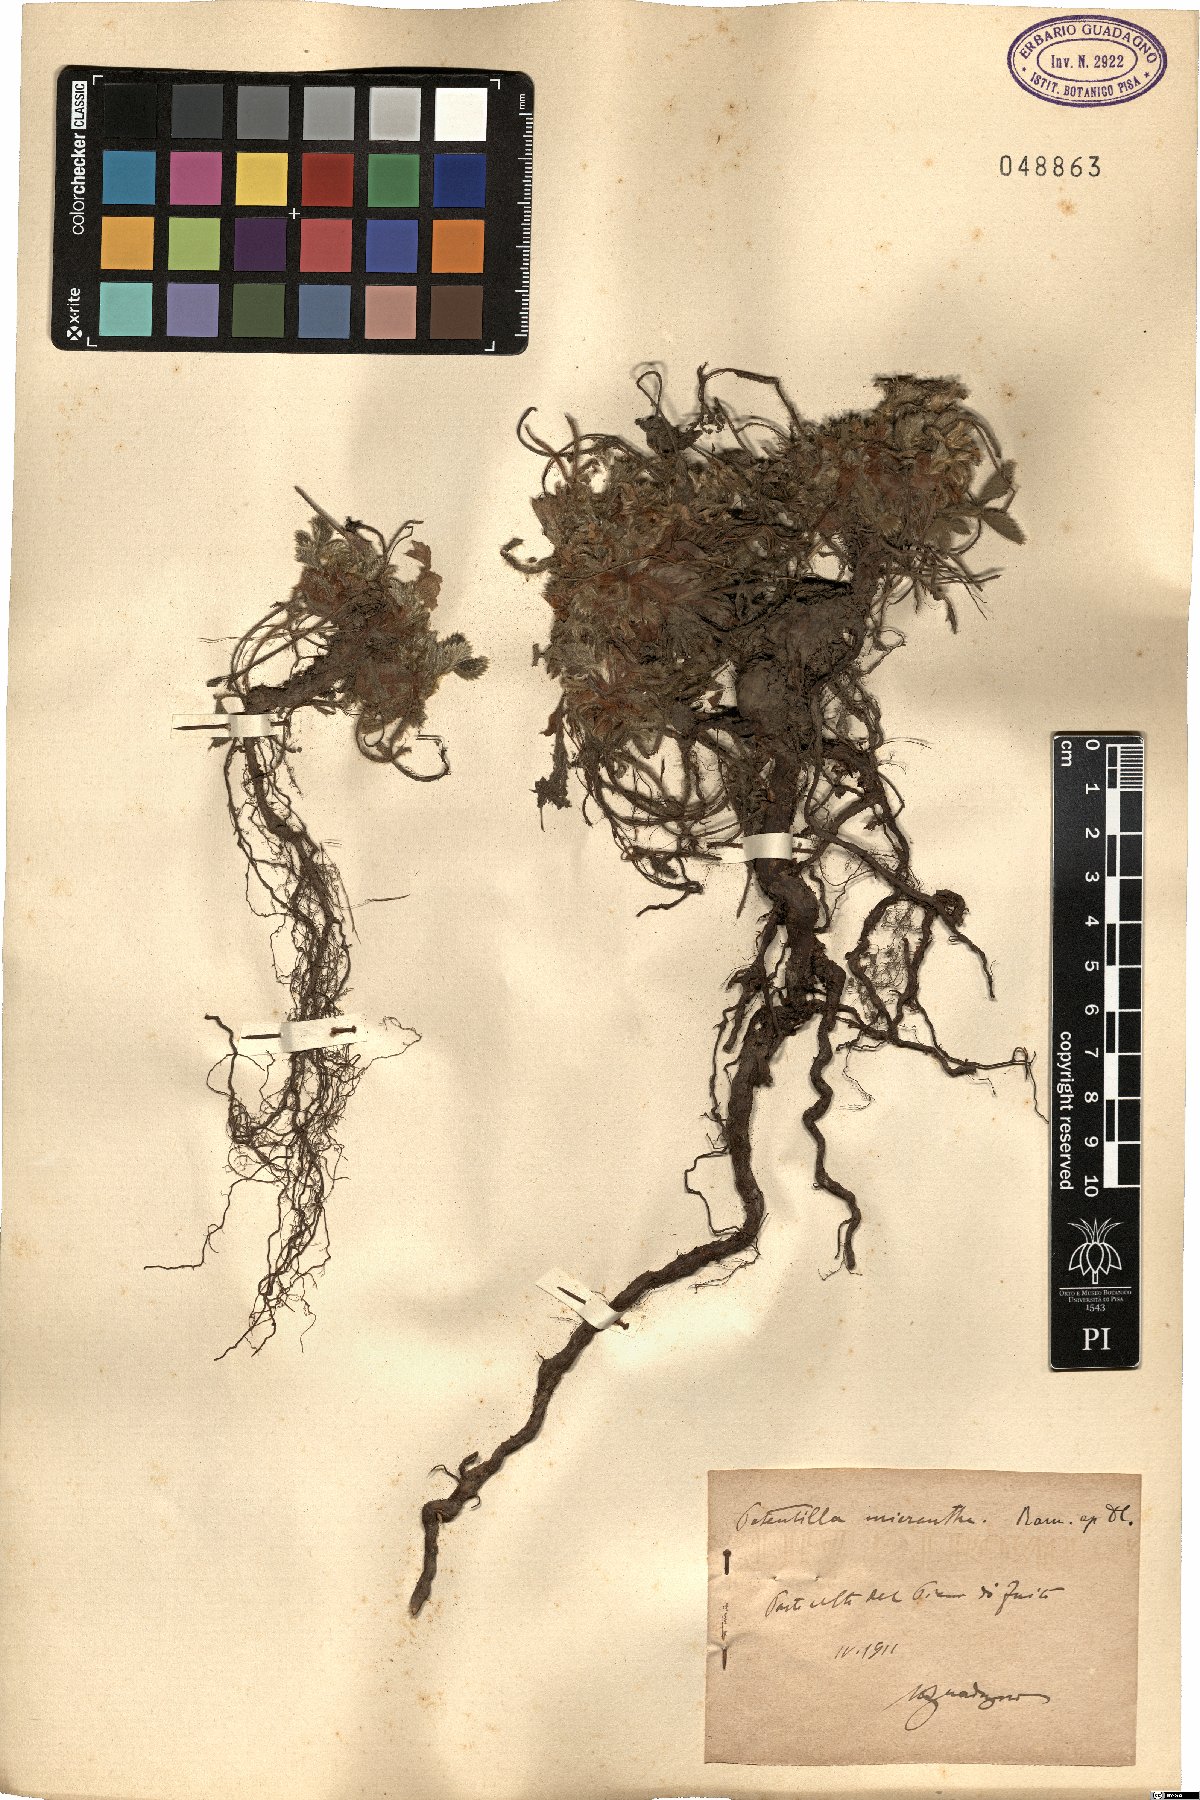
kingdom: Plantae
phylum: Tracheophyta
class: Magnoliopsida
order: Rosales
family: Rosaceae
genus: Potentilla
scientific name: Potentilla micrantha
